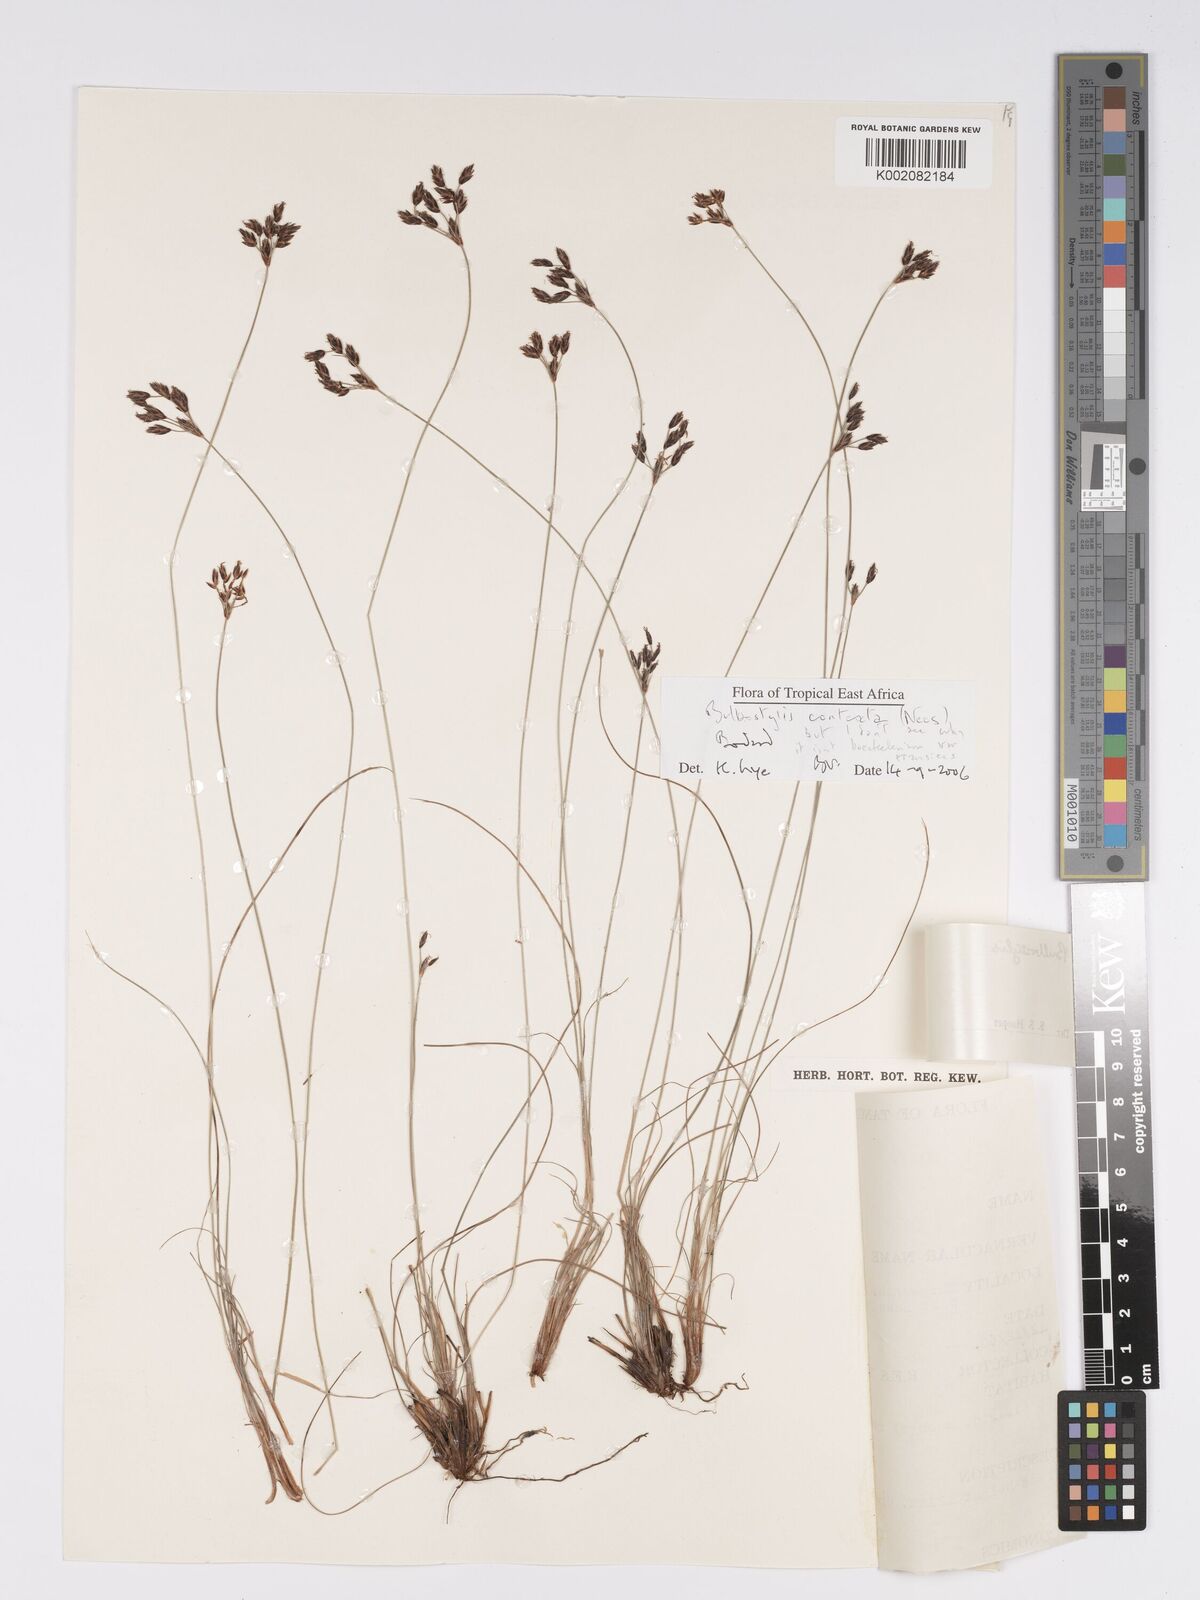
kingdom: Plantae
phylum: Tracheophyta
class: Liliopsida
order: Poales
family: Cyperaceae
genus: Bulbostylis
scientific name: Bulbostylis contexta
